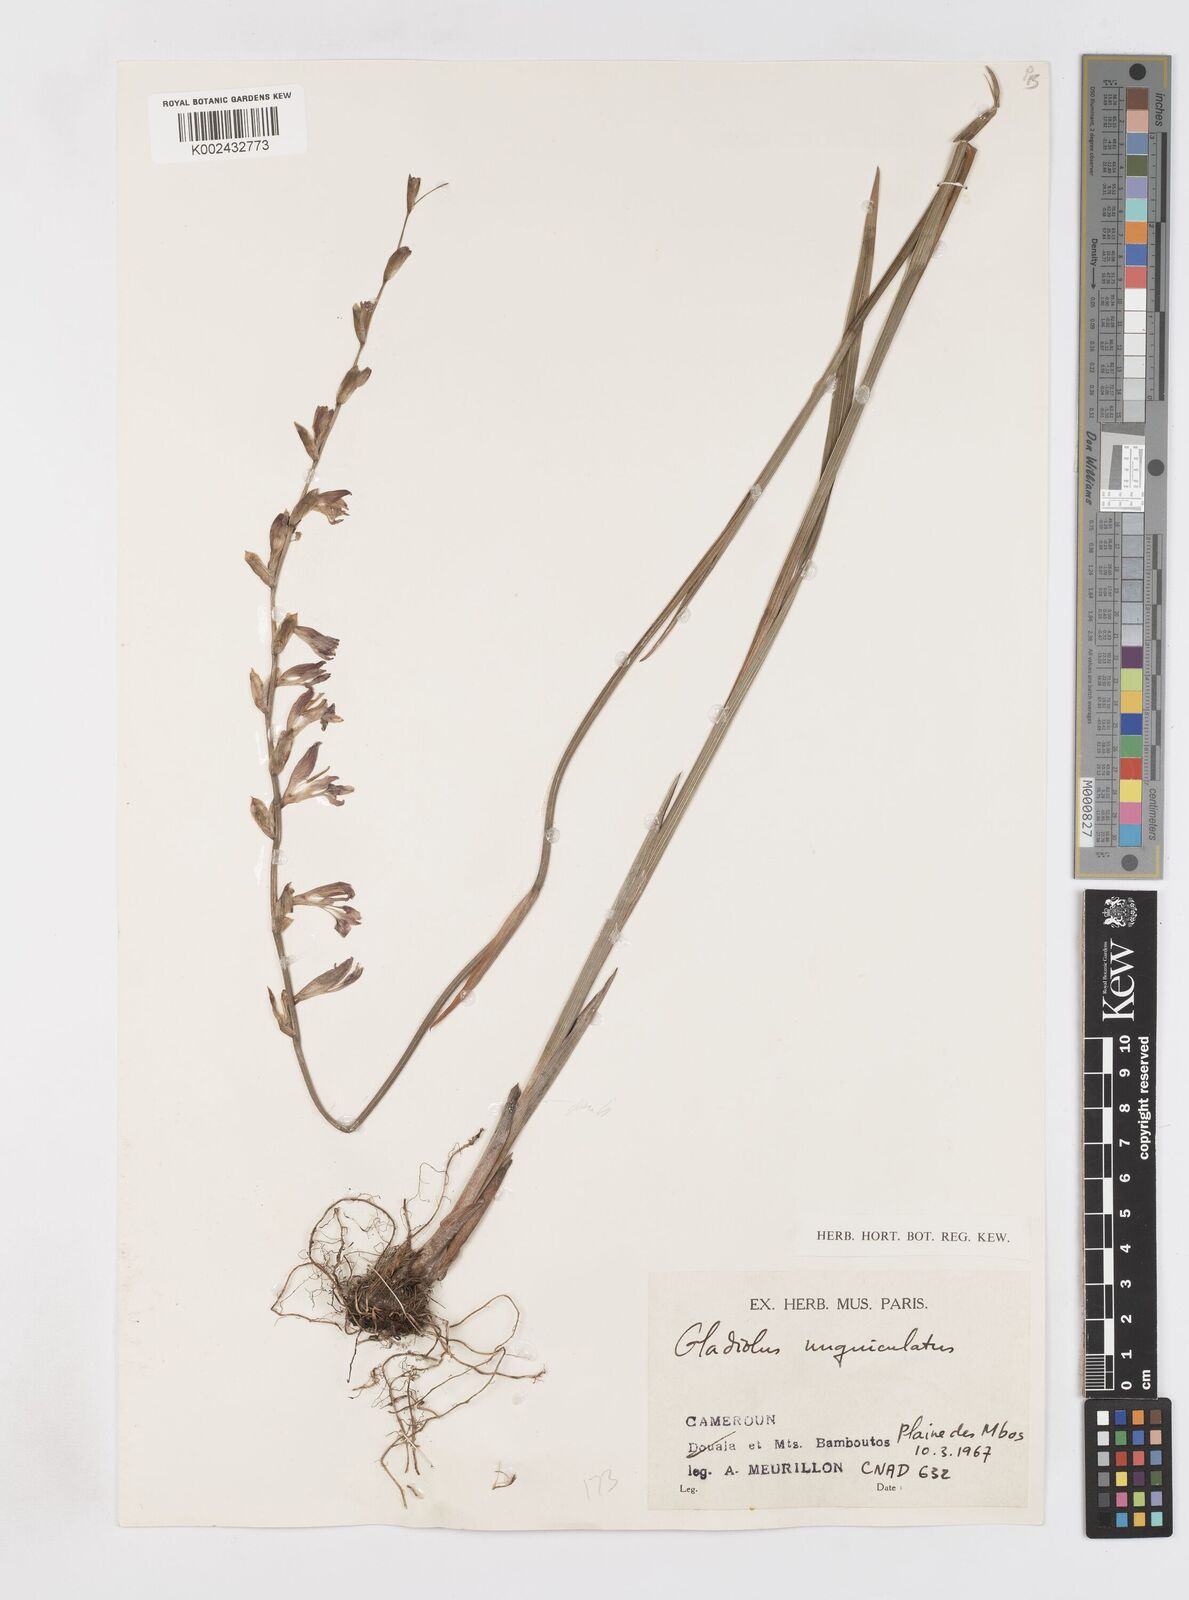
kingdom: Plantae
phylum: Tracheophyta
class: Liliopsida
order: Asparagales
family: Iridaceae
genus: Gladiolus
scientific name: Gladiolus unguiculatus
